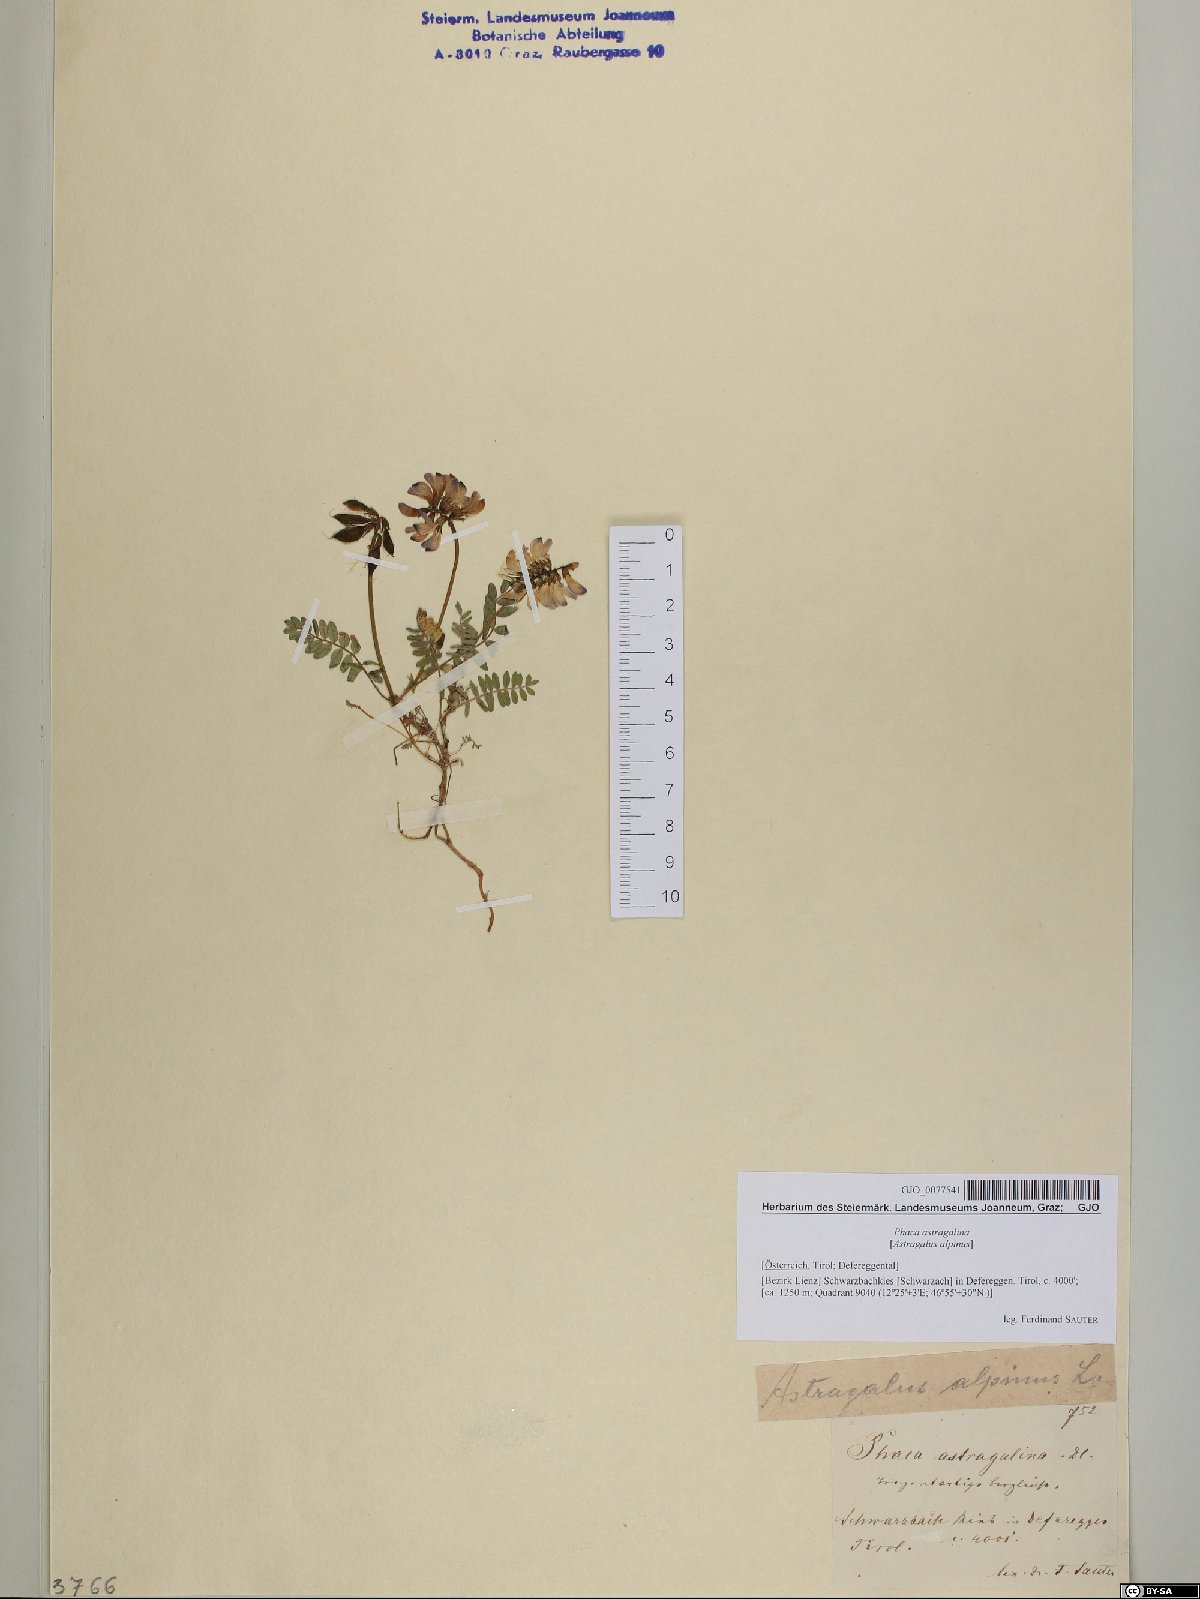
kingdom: Plantae
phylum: Tracheophyta
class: Magnoliopsida
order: Fabales
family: Fabaceae
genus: Astragalus
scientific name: Astragalus alpinus
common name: Alpine milk-vetch
